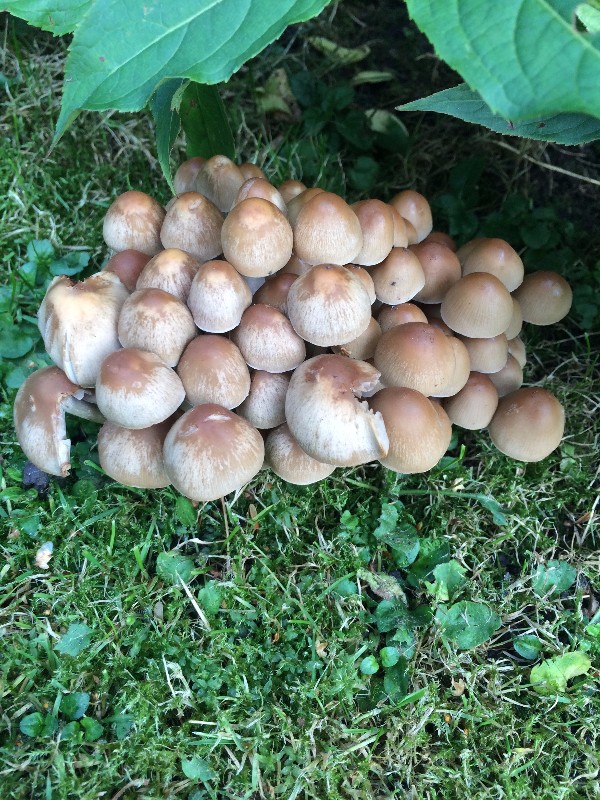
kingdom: Fungi
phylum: Basidiomycota
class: Agaricomycetes
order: Agaricales
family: Psathyrellaceae
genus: Britzelmayria
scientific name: Britzelmayria multipedata
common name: knippe-mørkhat
